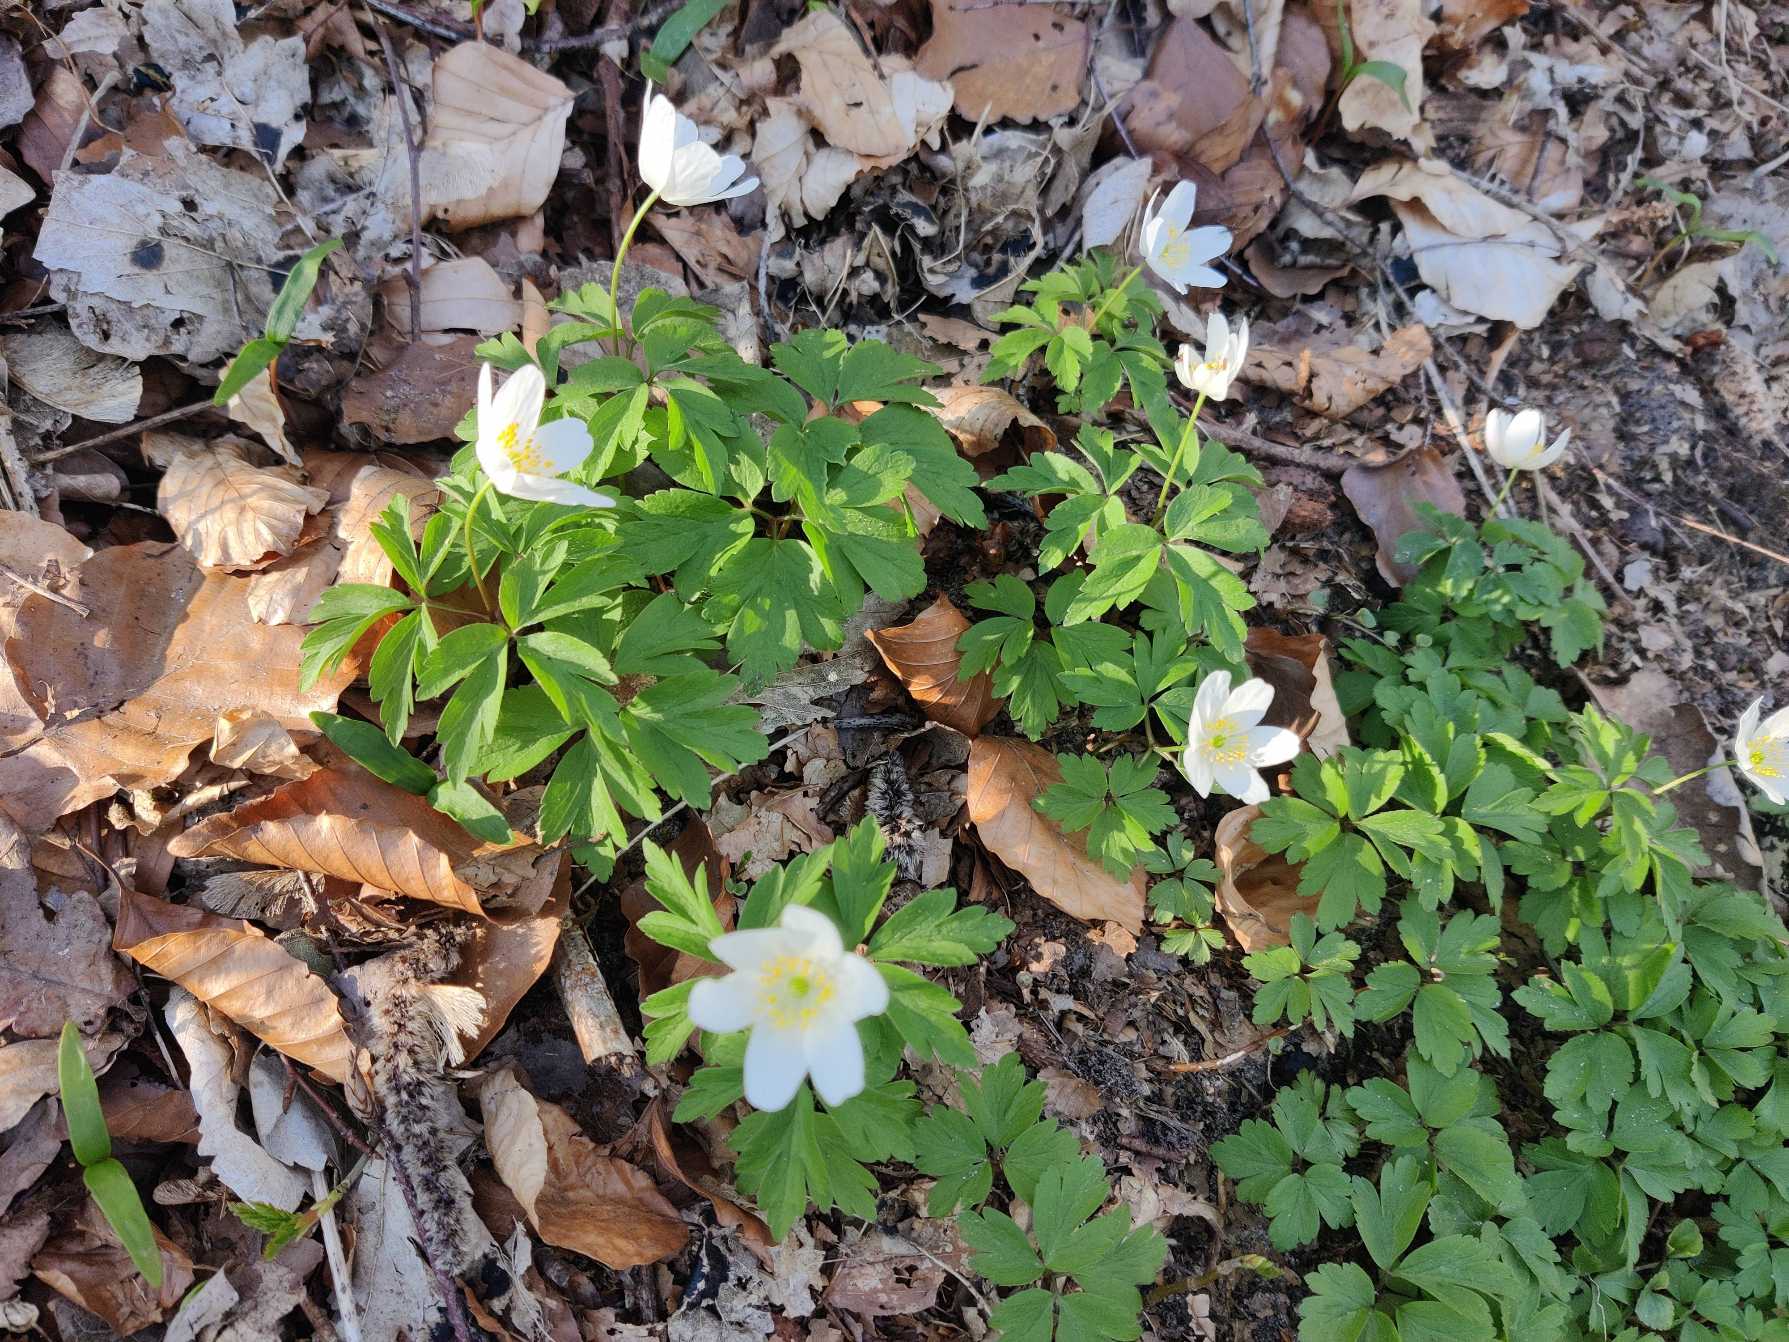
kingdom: Plantae
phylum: Tracheophyta
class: Magnoliopsida
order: Ranunculales
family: Ranunculaceae
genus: Anemone
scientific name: Anemone nemorosa
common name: Hvid anemone
